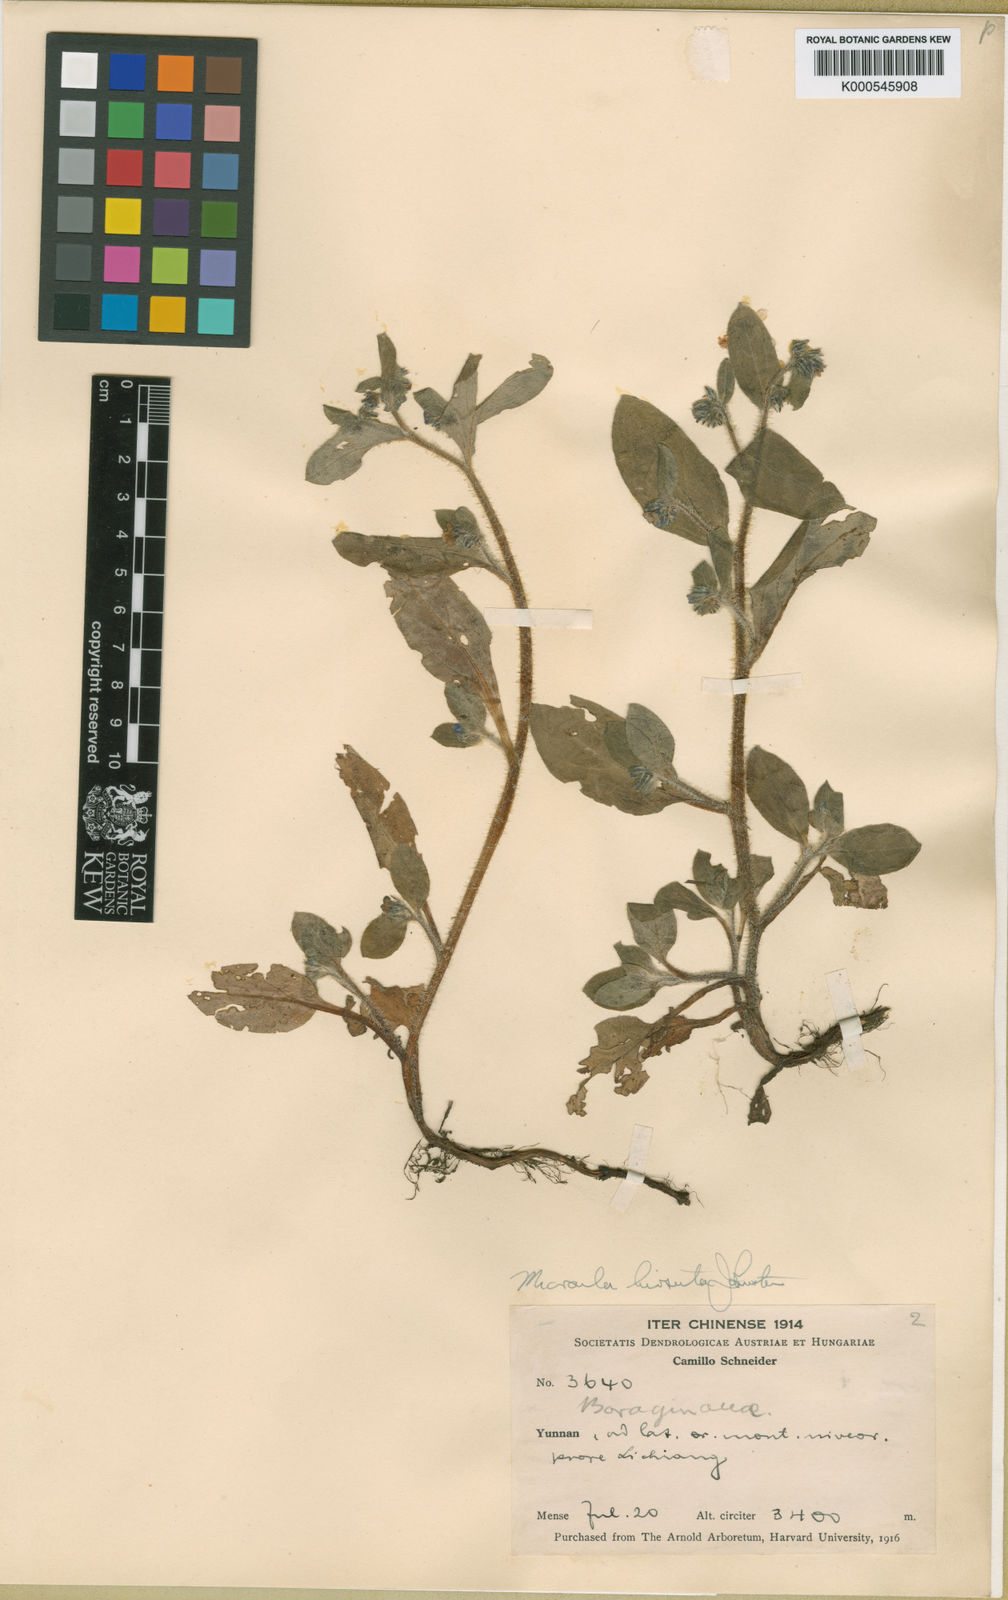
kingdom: Plantae
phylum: Tracheophyta
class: Magnoliopsida
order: Boraginales
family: Boraginaceae
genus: Microula
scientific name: Microula forrestii
